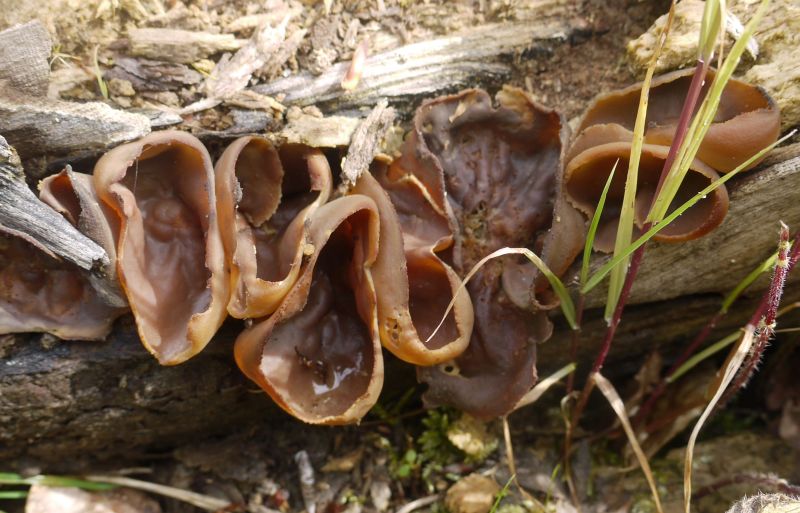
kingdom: Fungi
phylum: Ascomycota
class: Pezizomycetes
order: Pezizales
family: Pezizaceae
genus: Peziza
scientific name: Peziza varia
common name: Ved-bægersvamp
